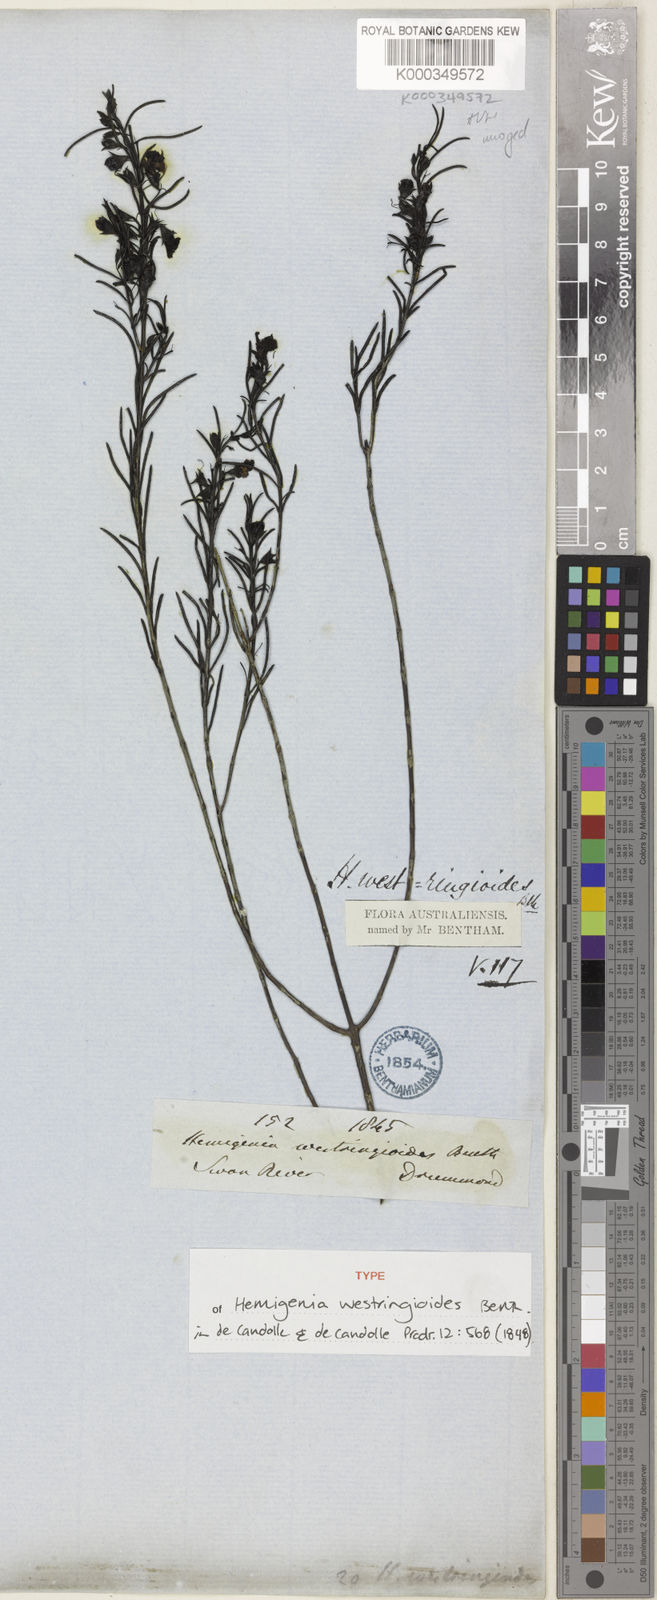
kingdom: Plantae
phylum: Tracheophyta
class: Magnoliopsida
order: Lamiales
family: Lamiaceae
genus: Hemigenia
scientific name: Hemigenia westringioides
